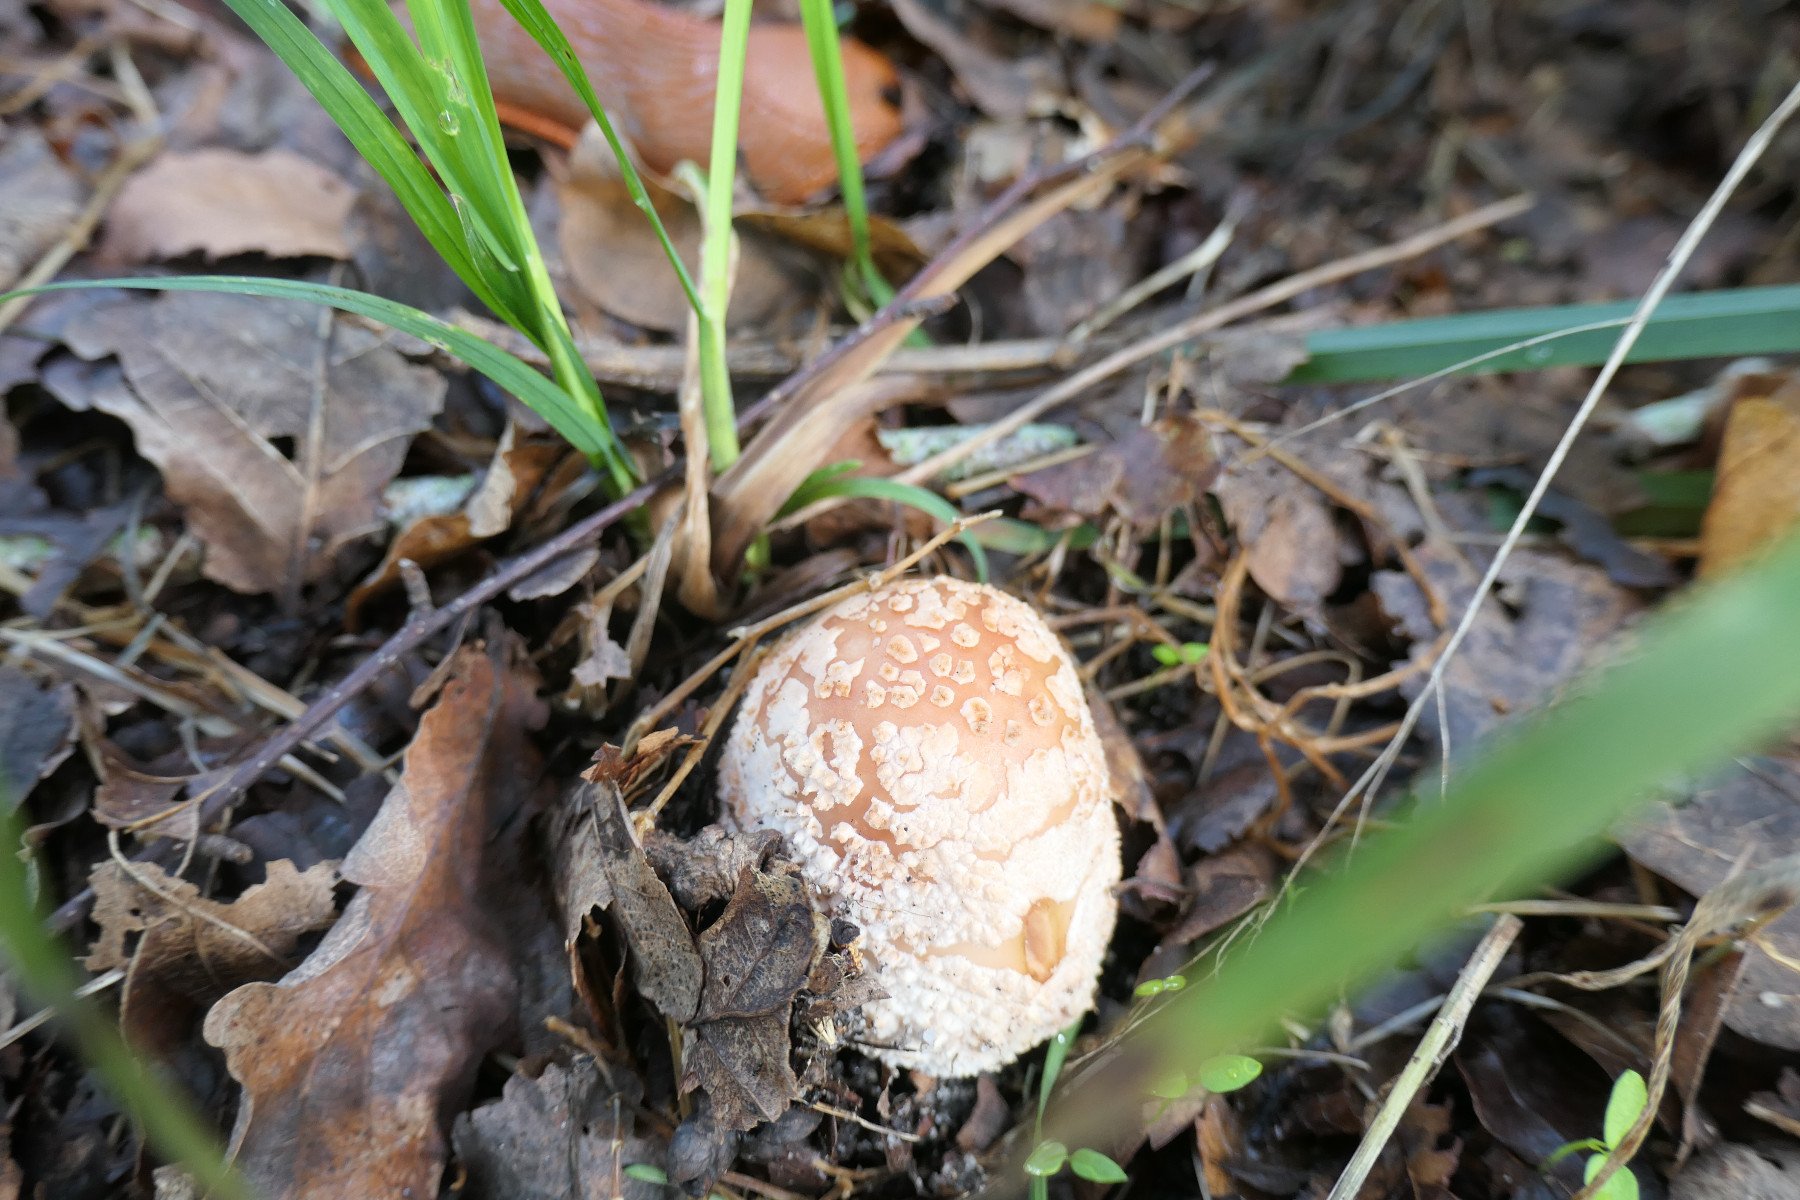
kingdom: Fungi
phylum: Basidiomycota
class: Agaricomycetes
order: Agaricales
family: Amanitaceae
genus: Amanita
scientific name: Amanita rubescens
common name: rødmende fluesvamp
